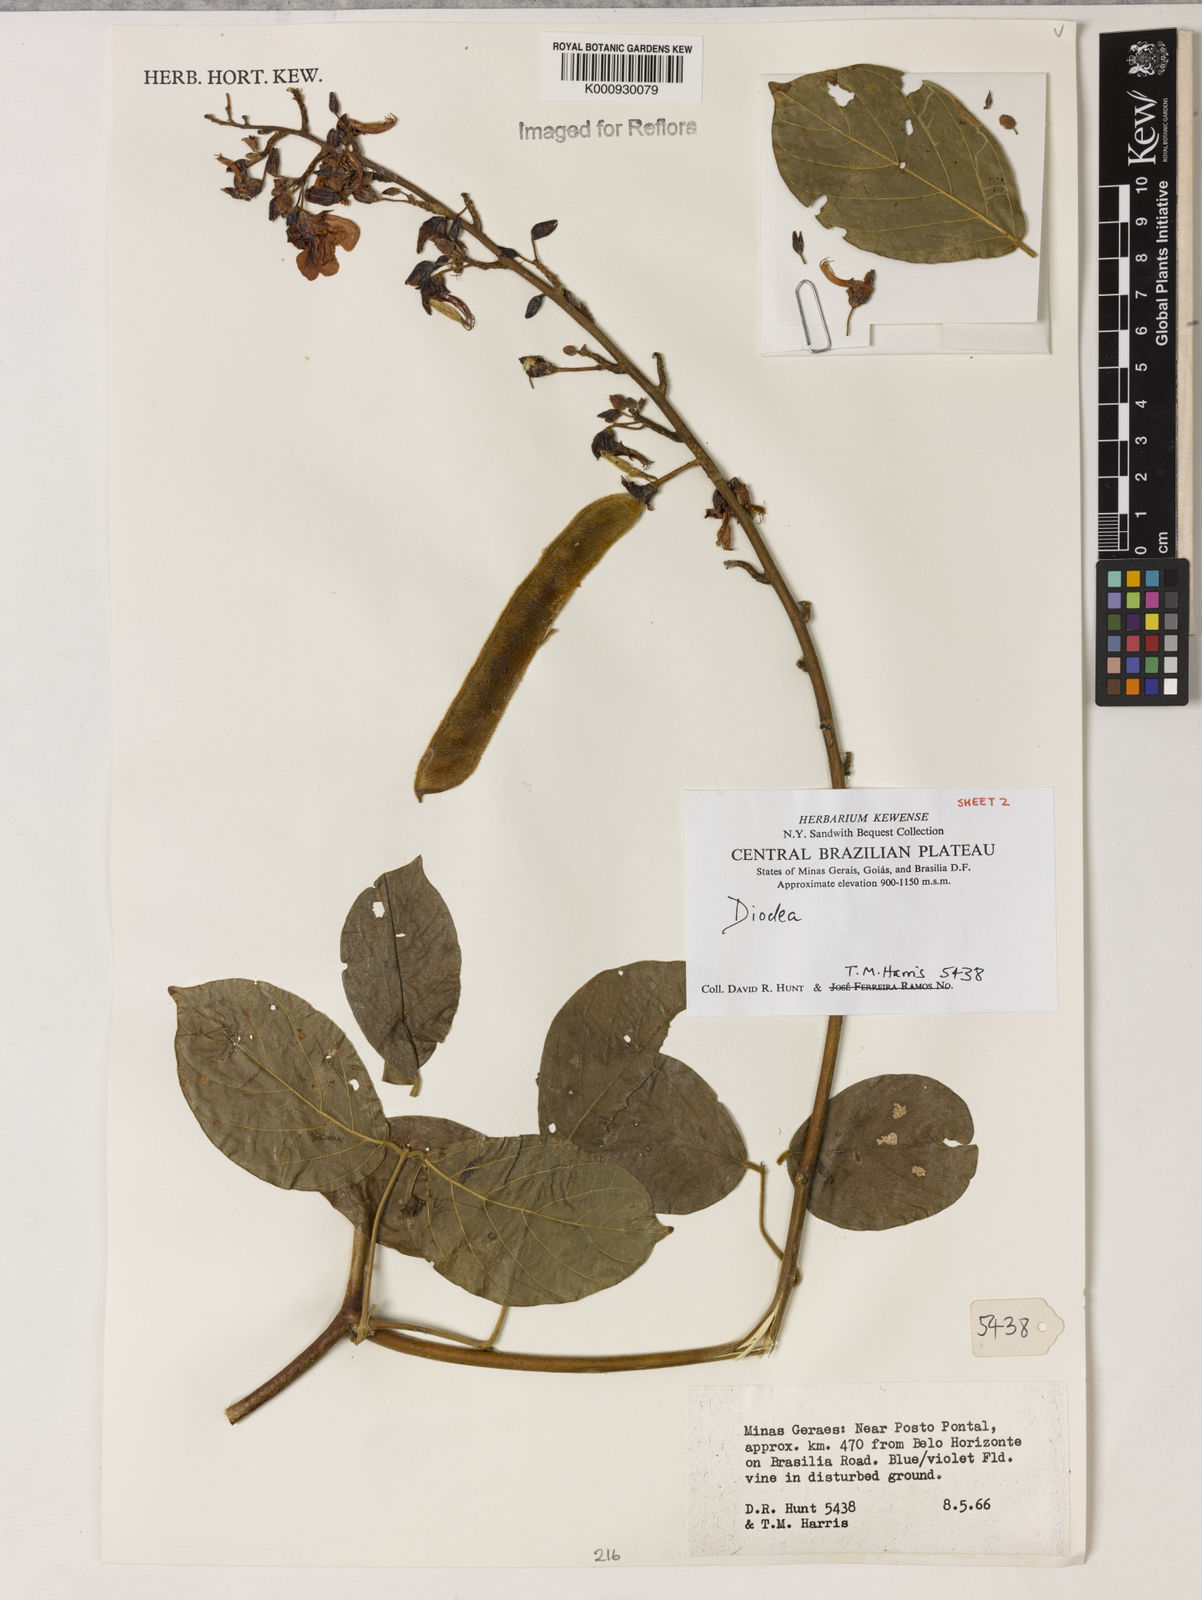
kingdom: Plantae
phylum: Tracheophyta
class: Magnoliopsida
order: Fabales
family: Fabaceae
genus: Dioclea
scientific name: Dioclea
